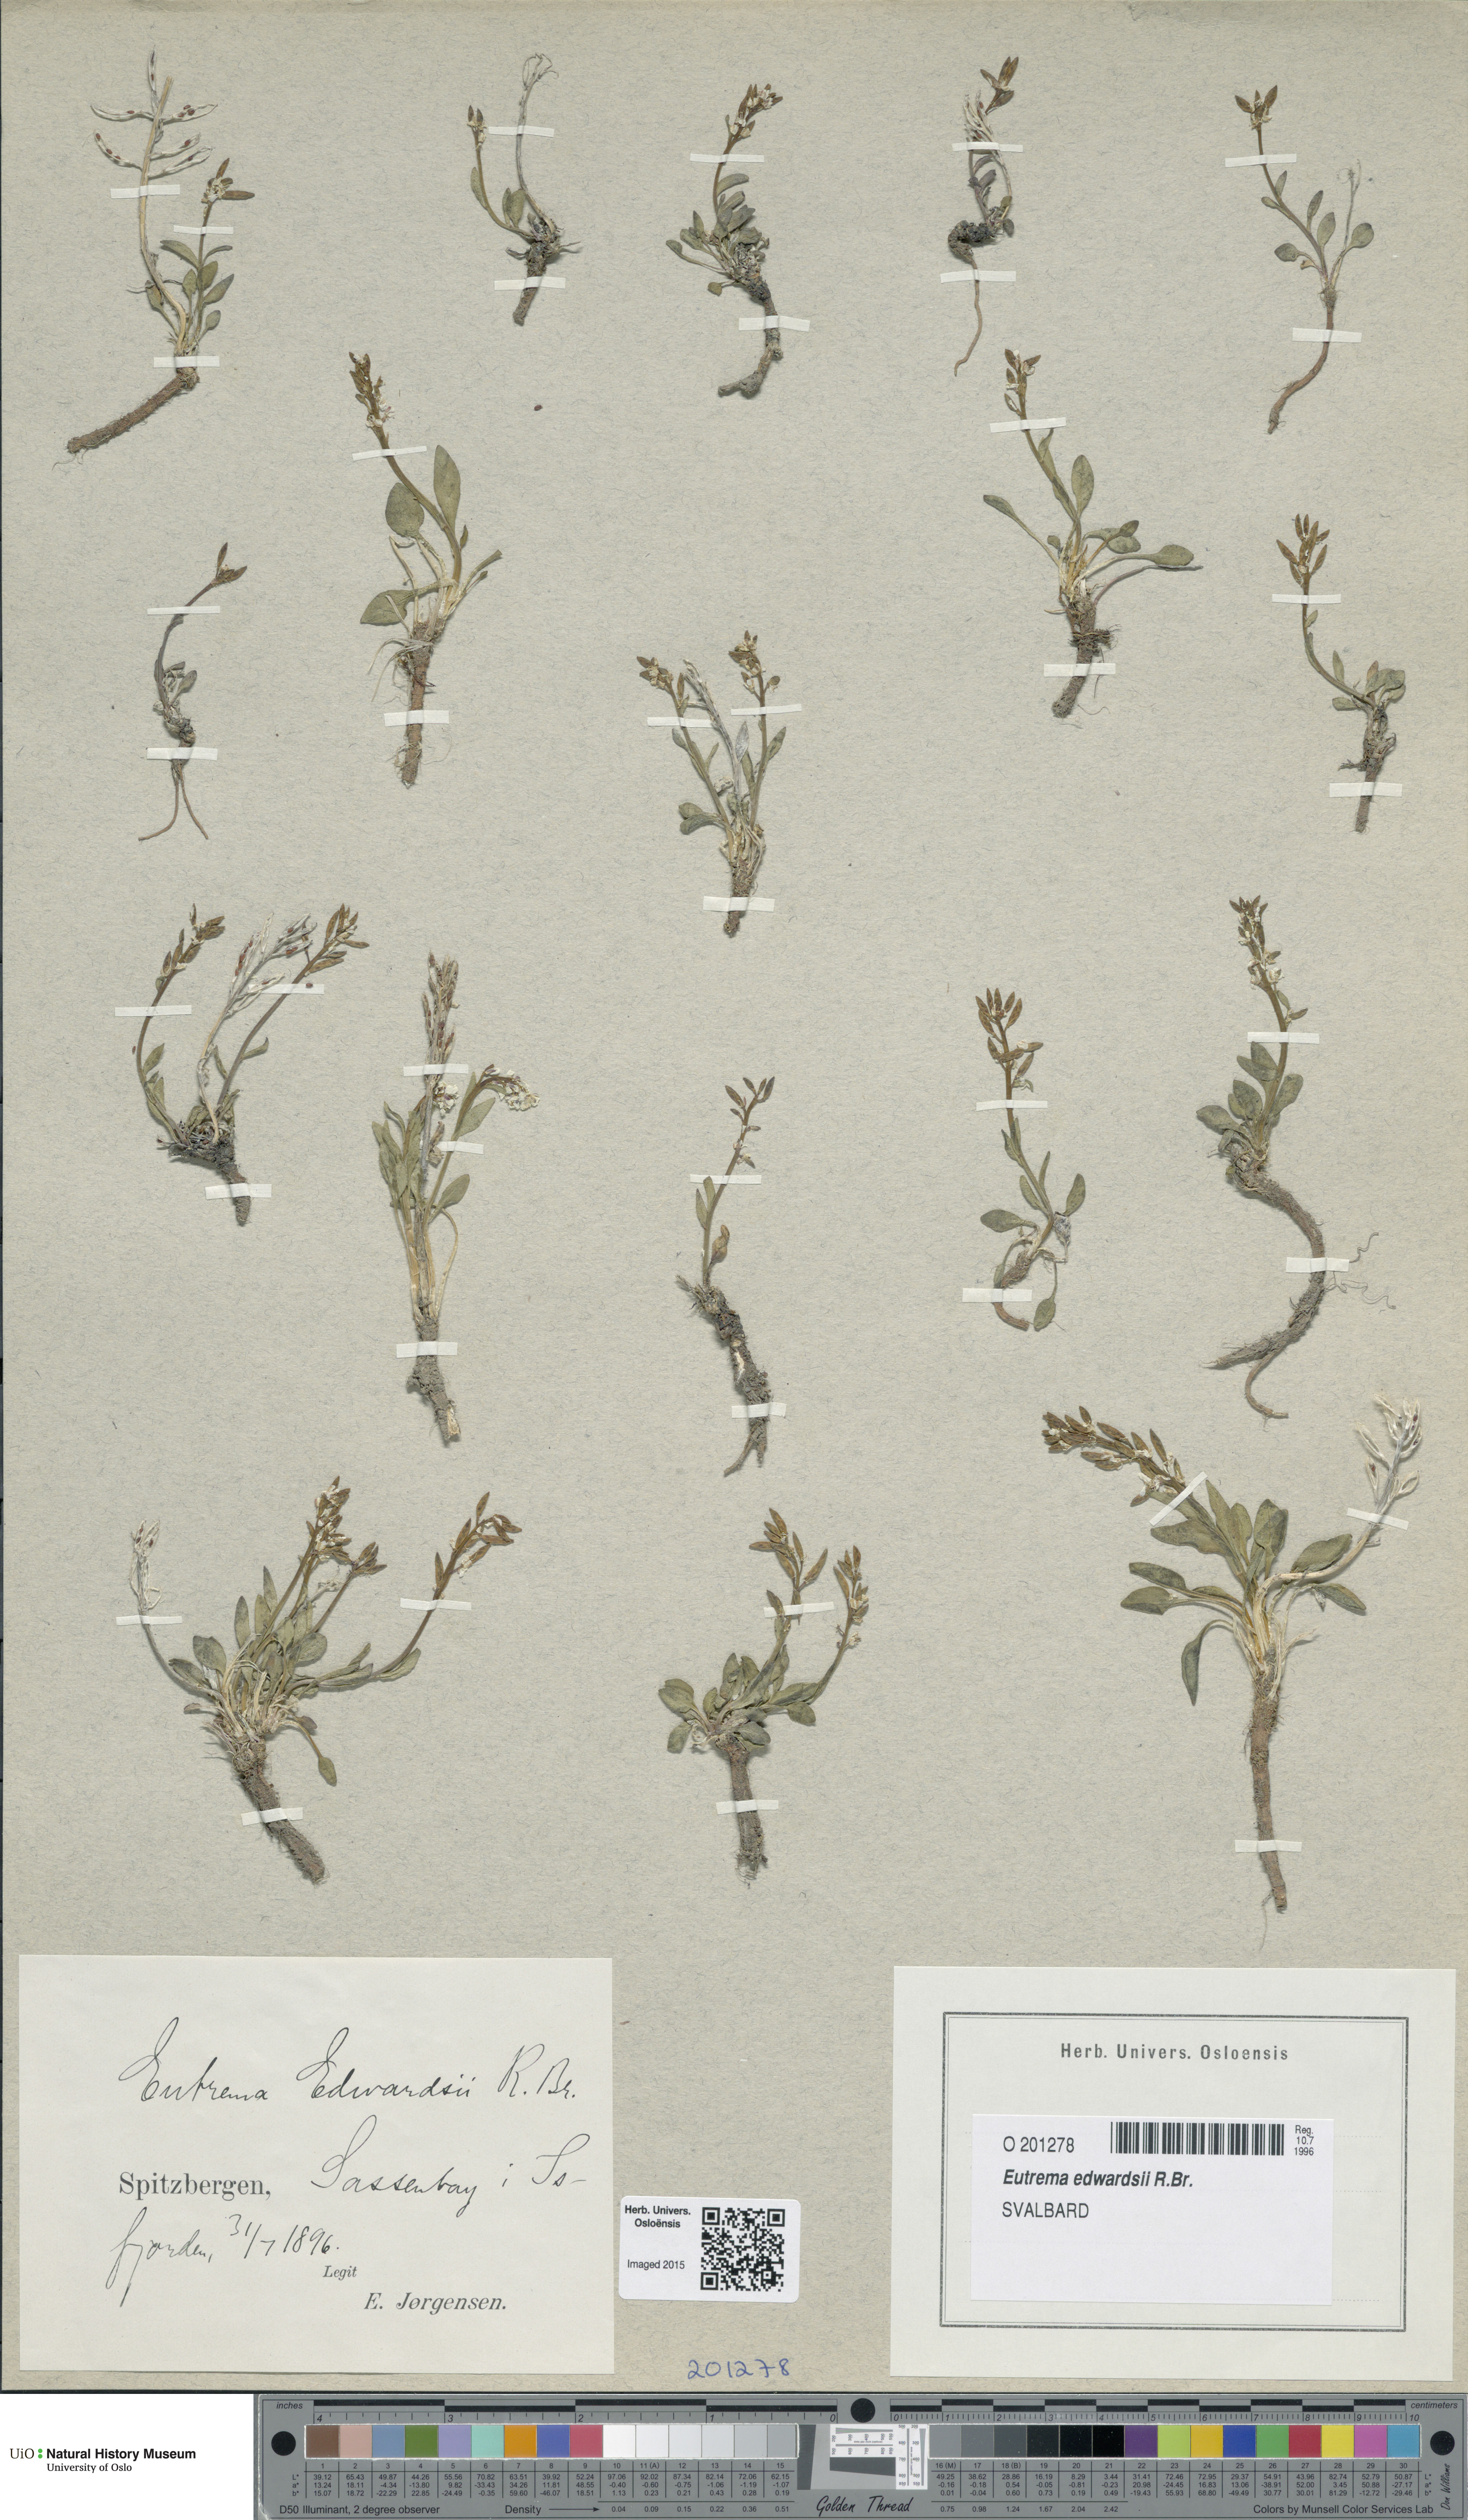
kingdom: Plantae
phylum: Tracheophyta
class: Magnoliopsida
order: Brassicales
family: Brassicaceae
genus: Eutrema
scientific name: Eutrema edwardsii
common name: Penland alpine fen mustard
